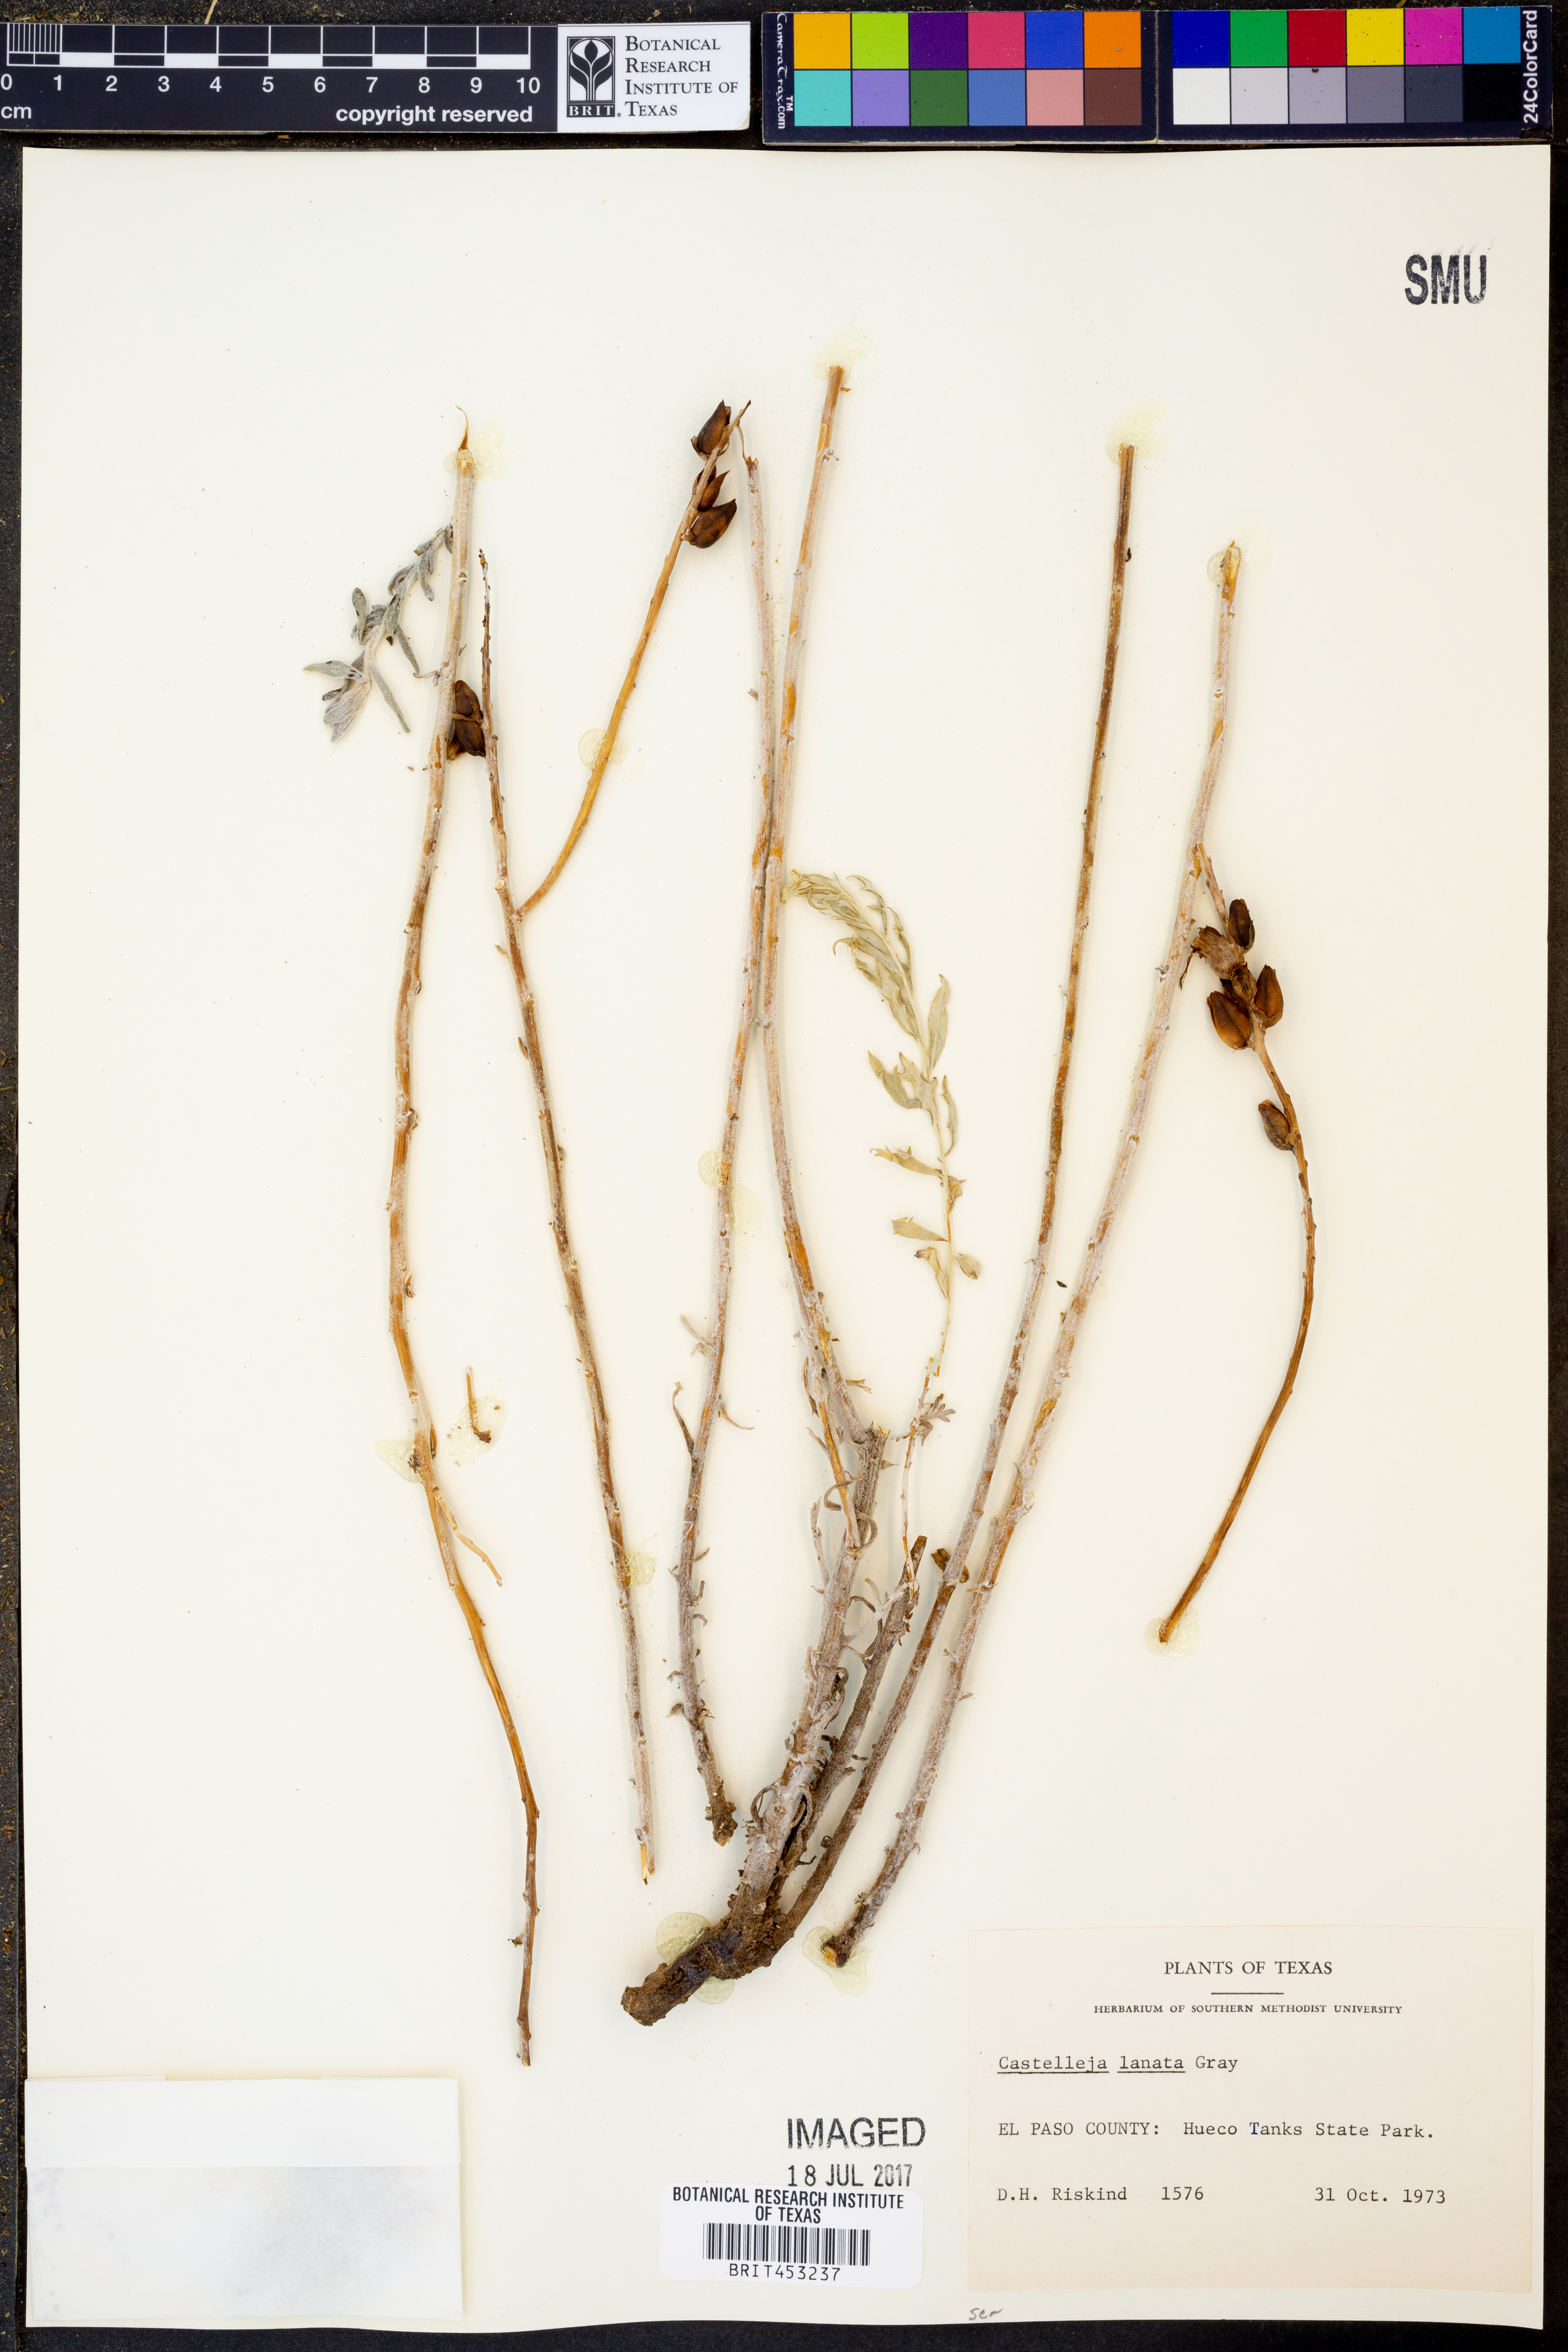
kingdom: Plantae
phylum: Tracheophyta
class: Magnoliopsida
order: Lamiales
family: Orobanchaceae
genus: Castilleja
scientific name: Castilleja lanata
